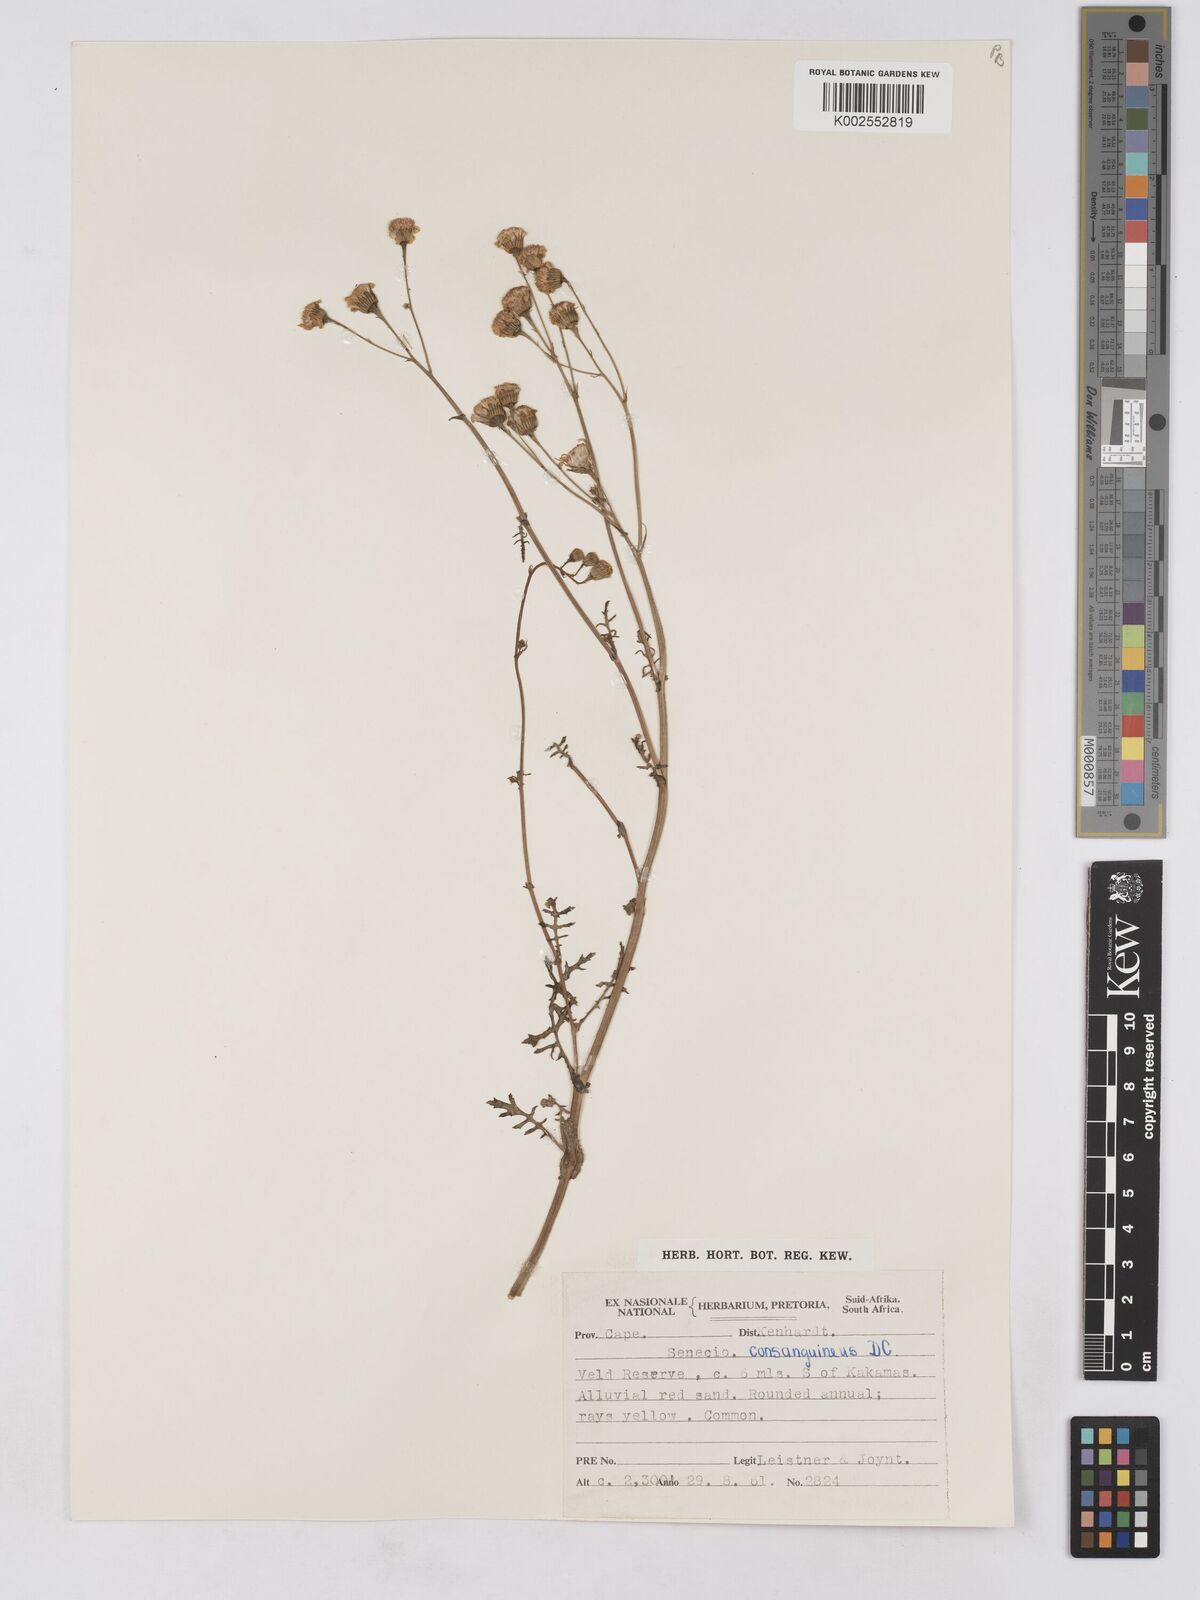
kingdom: Plantae
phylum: Tracheophyta
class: Magnoliopsida
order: Asterales
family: Asteraceae
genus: Senecio
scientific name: Senecio consanguineus
